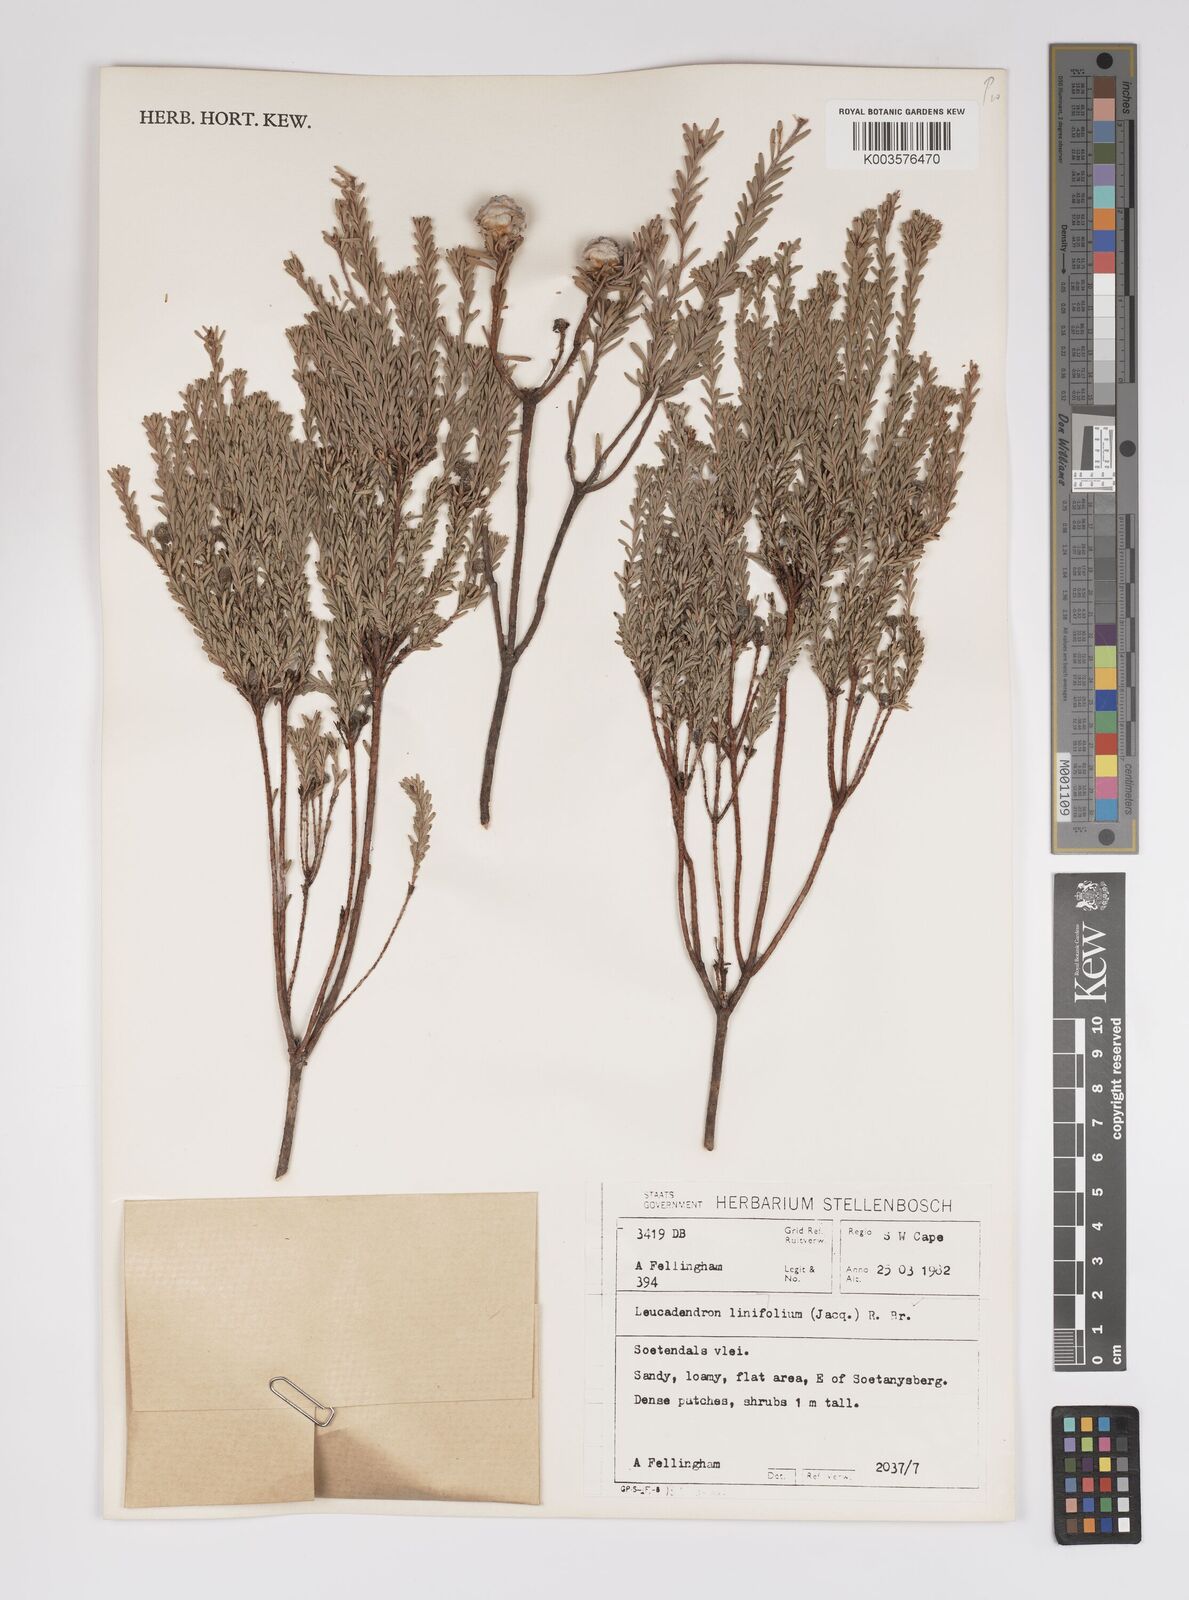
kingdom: Plantae
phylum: Tracheophyta
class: Magnoliopsida
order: Proteales
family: Proteaceae
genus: Leucadendron
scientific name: Leucadendron linifolium
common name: Line-leaf conebush
